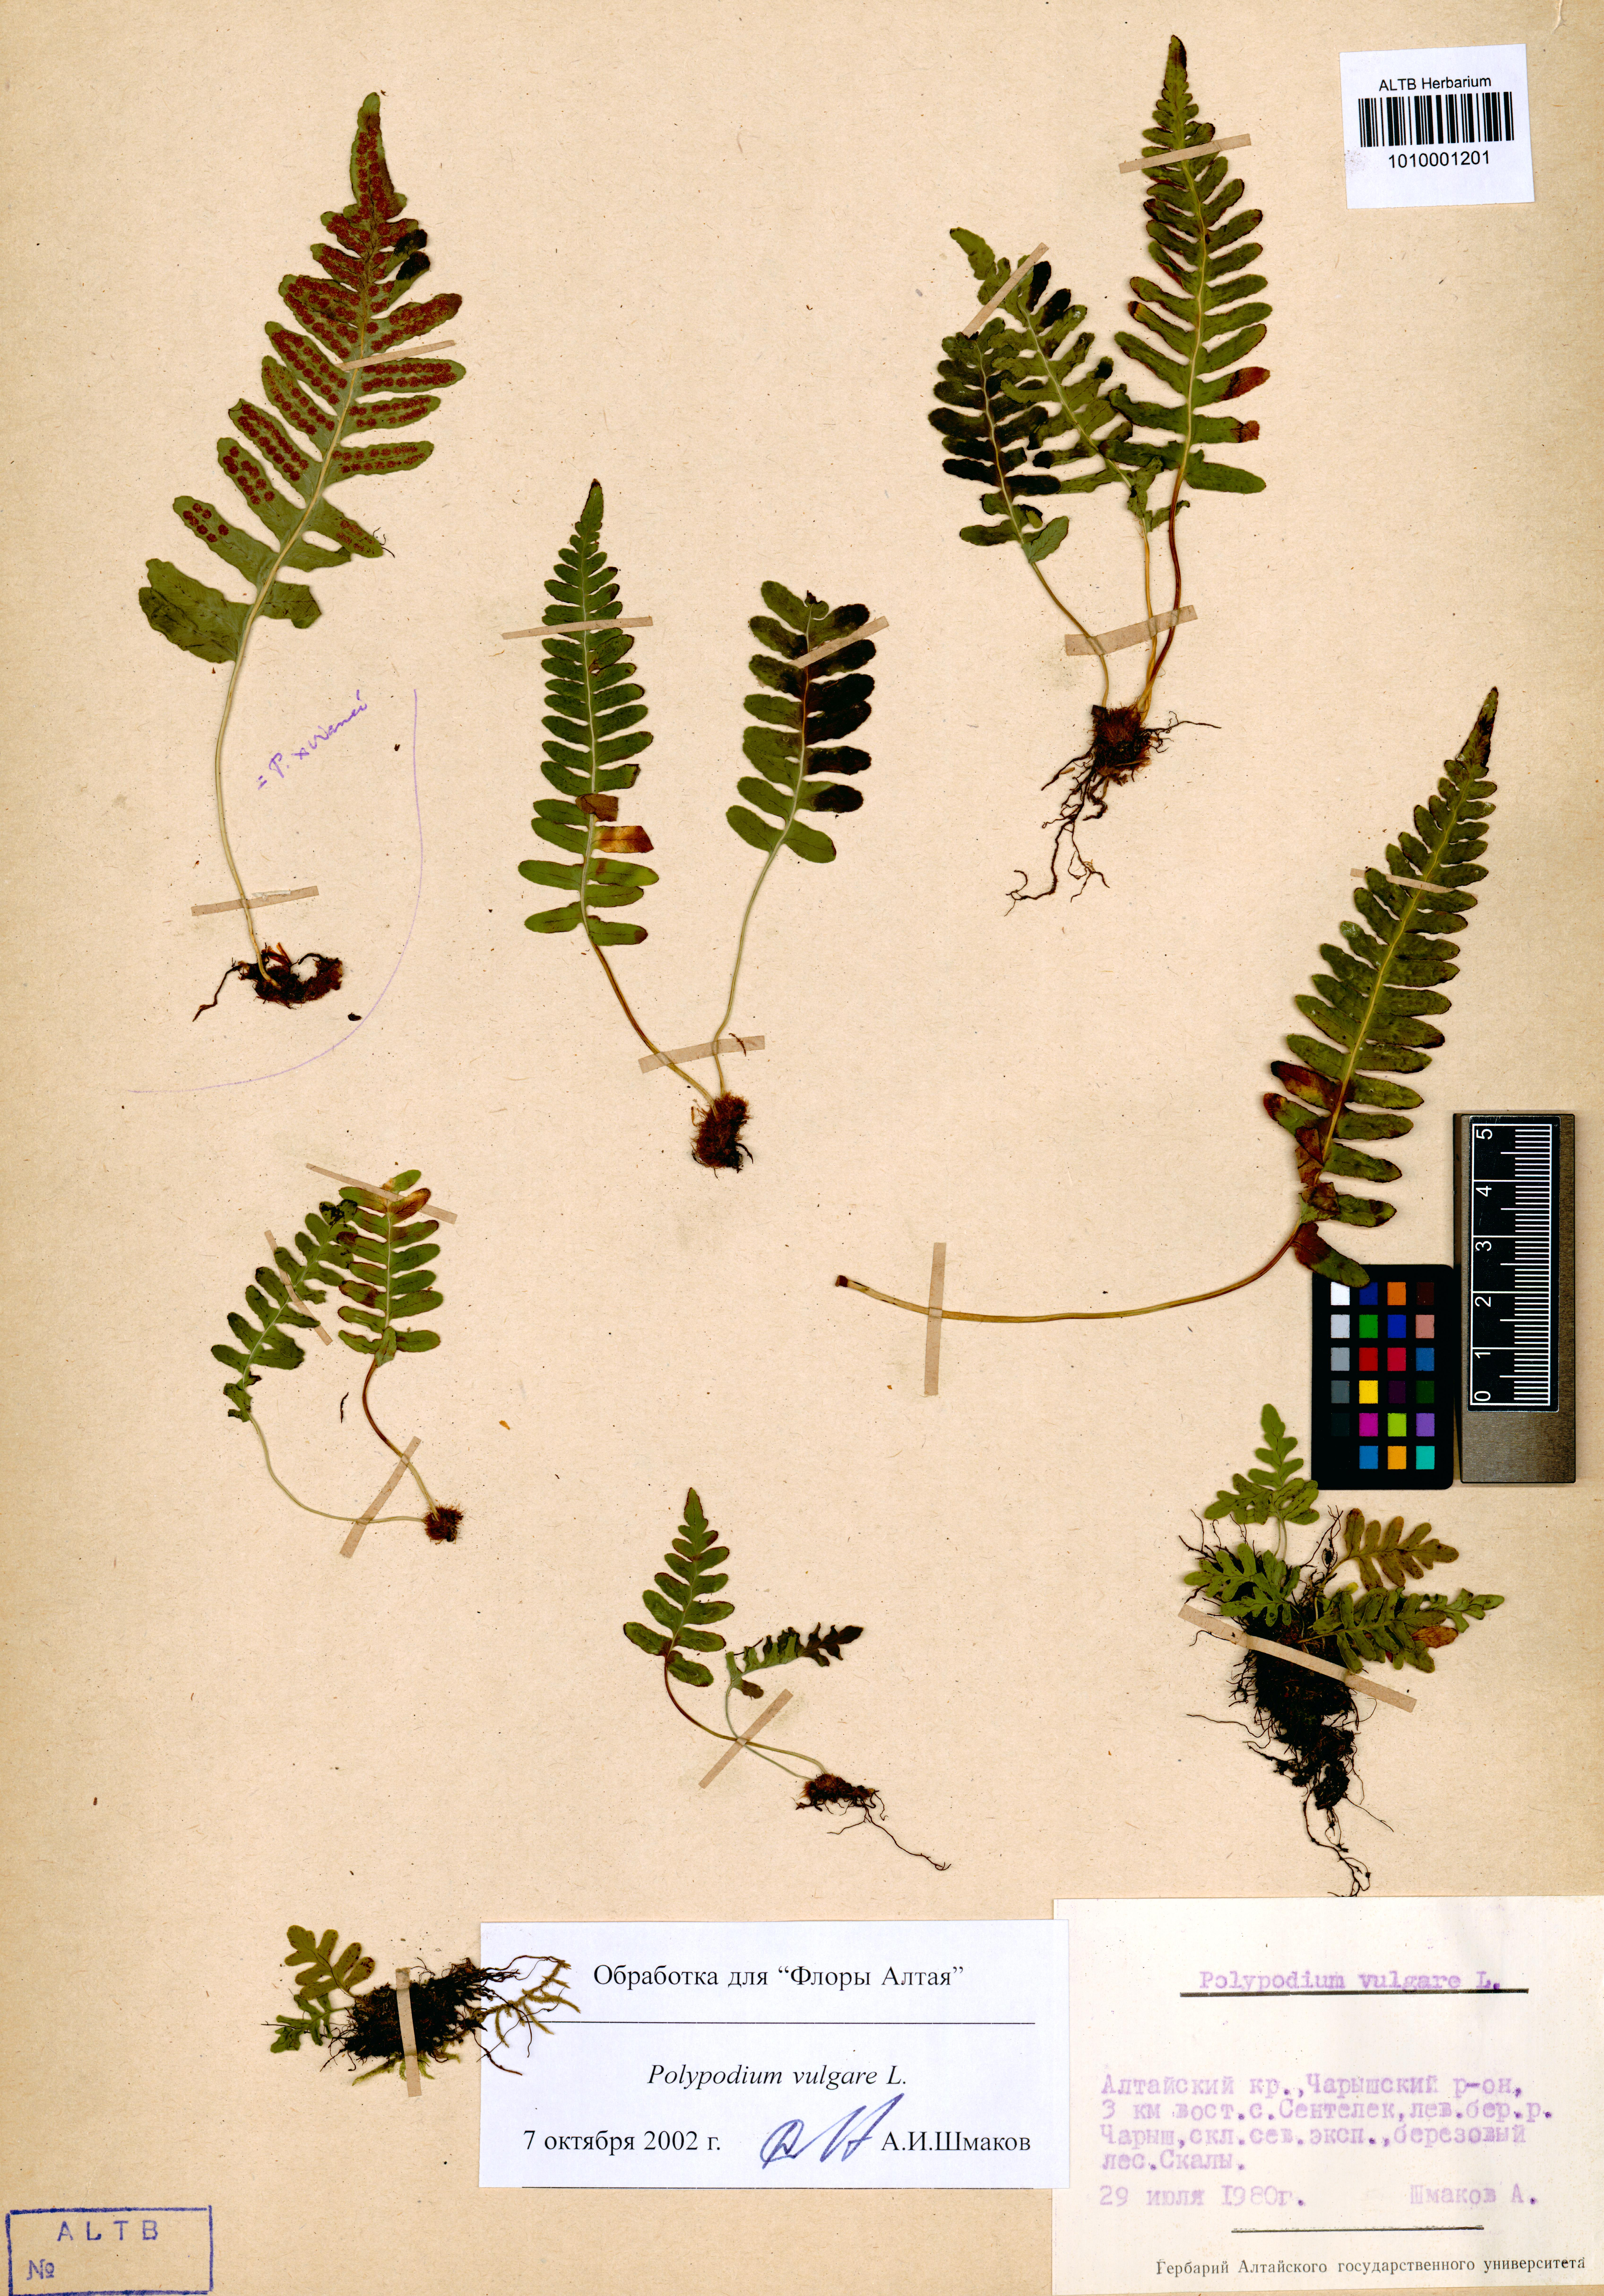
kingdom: Plantae
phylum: Tracheophyta
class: Polypodiopsida
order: Polypodiales
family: Polypodiaceae
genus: Polypodium
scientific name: Polypodium vulgare
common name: Common polypody
